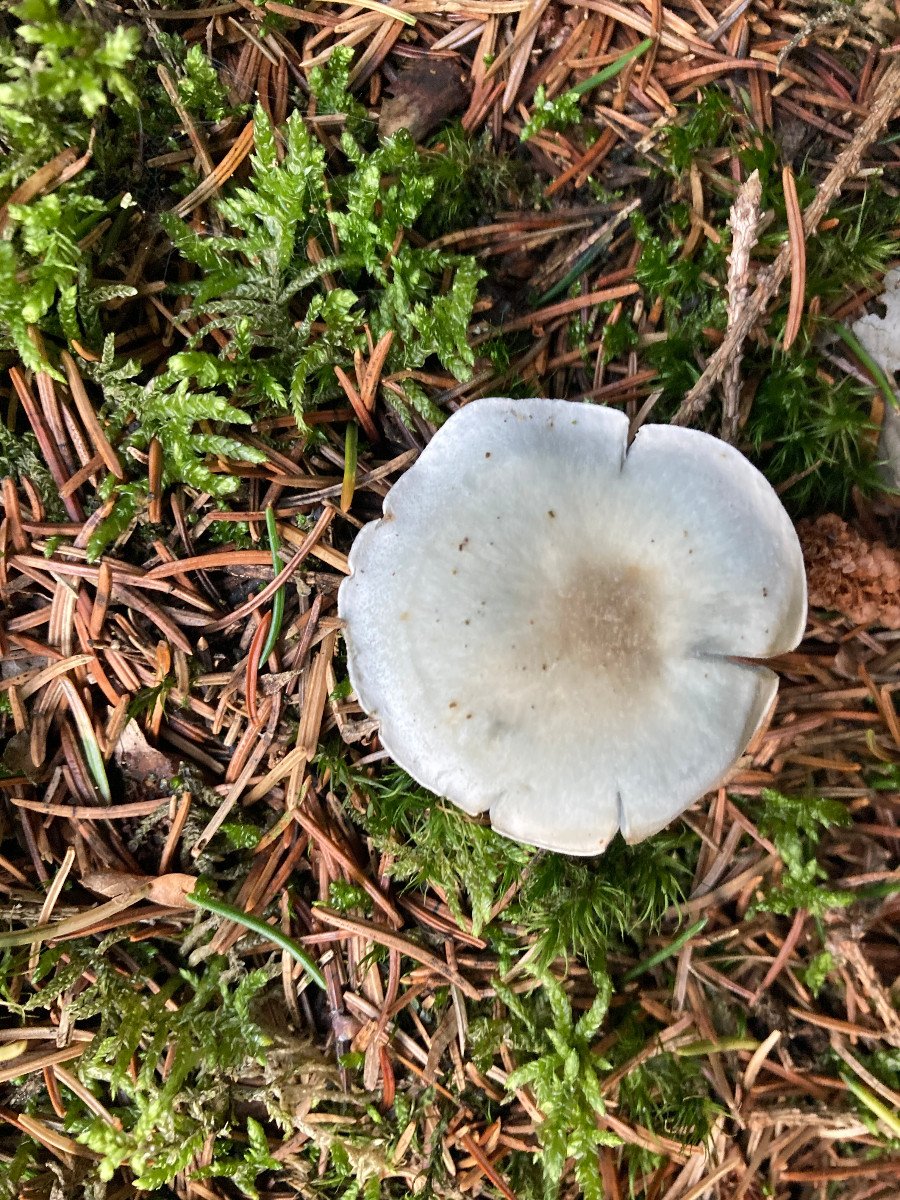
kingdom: Fungi
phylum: Basidiomycota
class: Agaricomycetes
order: Agaricales
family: Tricholomataceae
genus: Clitocybe
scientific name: Clitocybe odora
